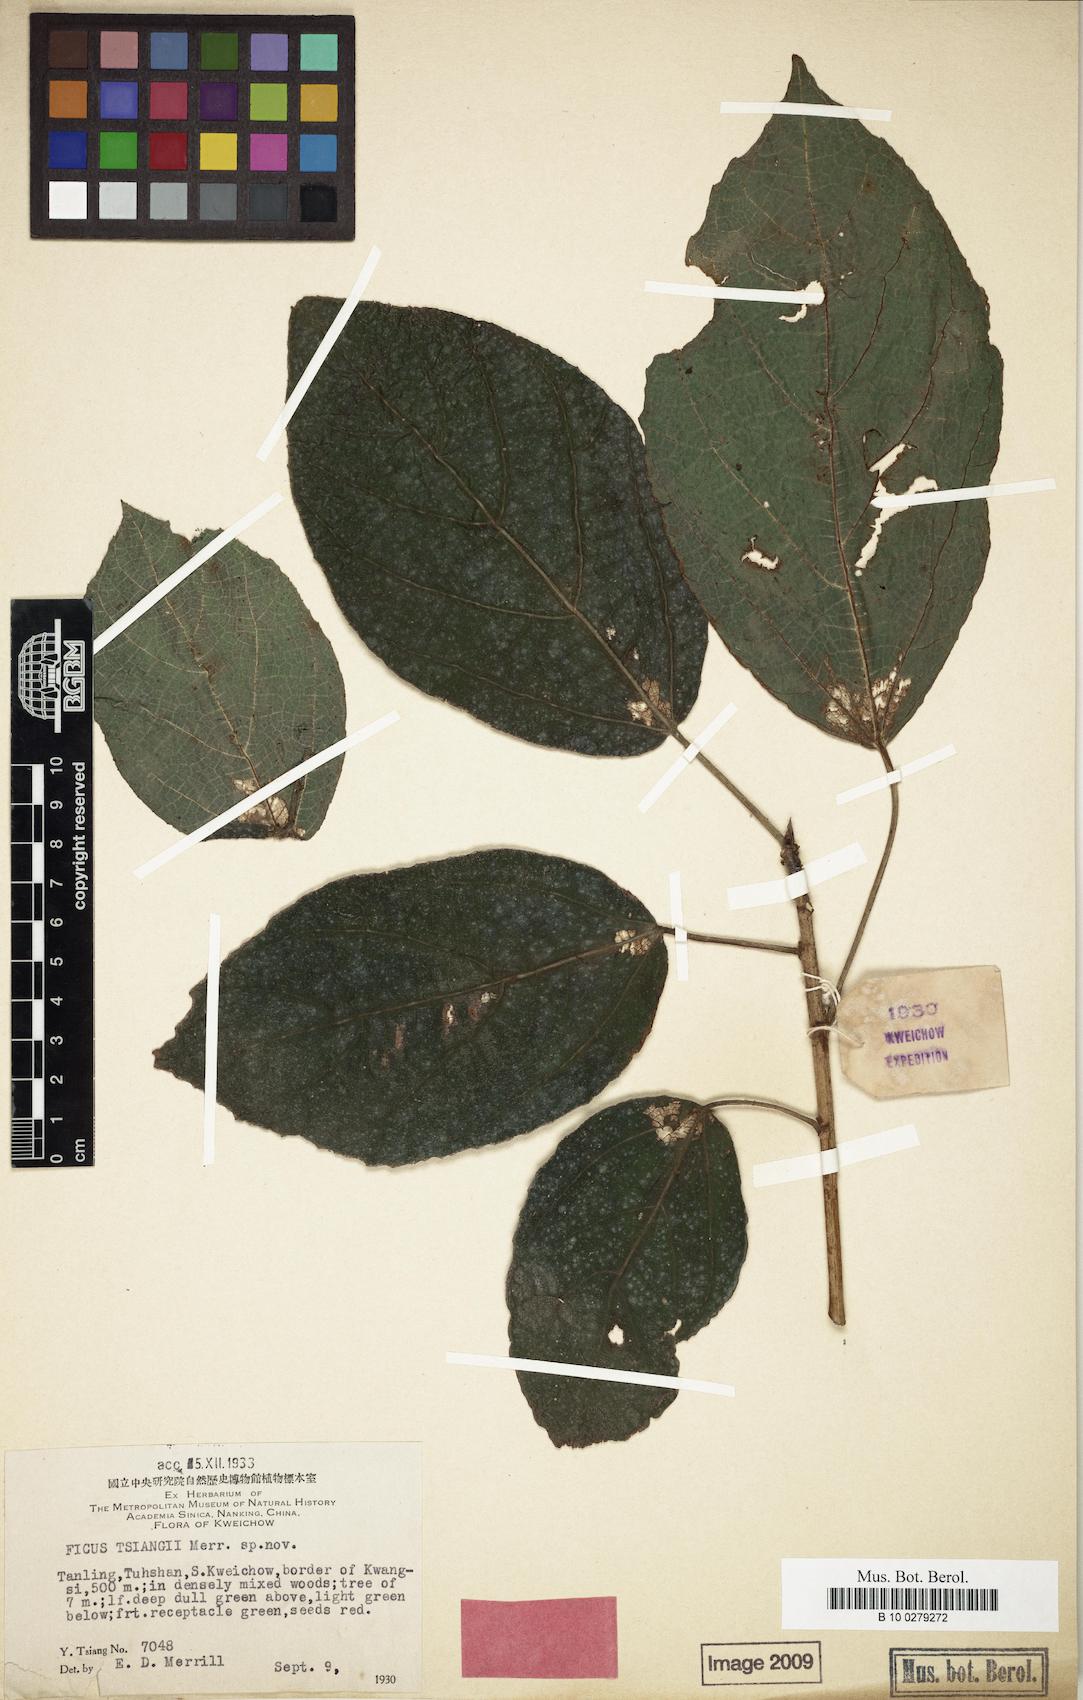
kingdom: Plantae
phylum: Tracheophyta
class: Magnoliopsida
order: Rosales
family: Moraceae
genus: Ficus
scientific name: Ficus tsiangii
